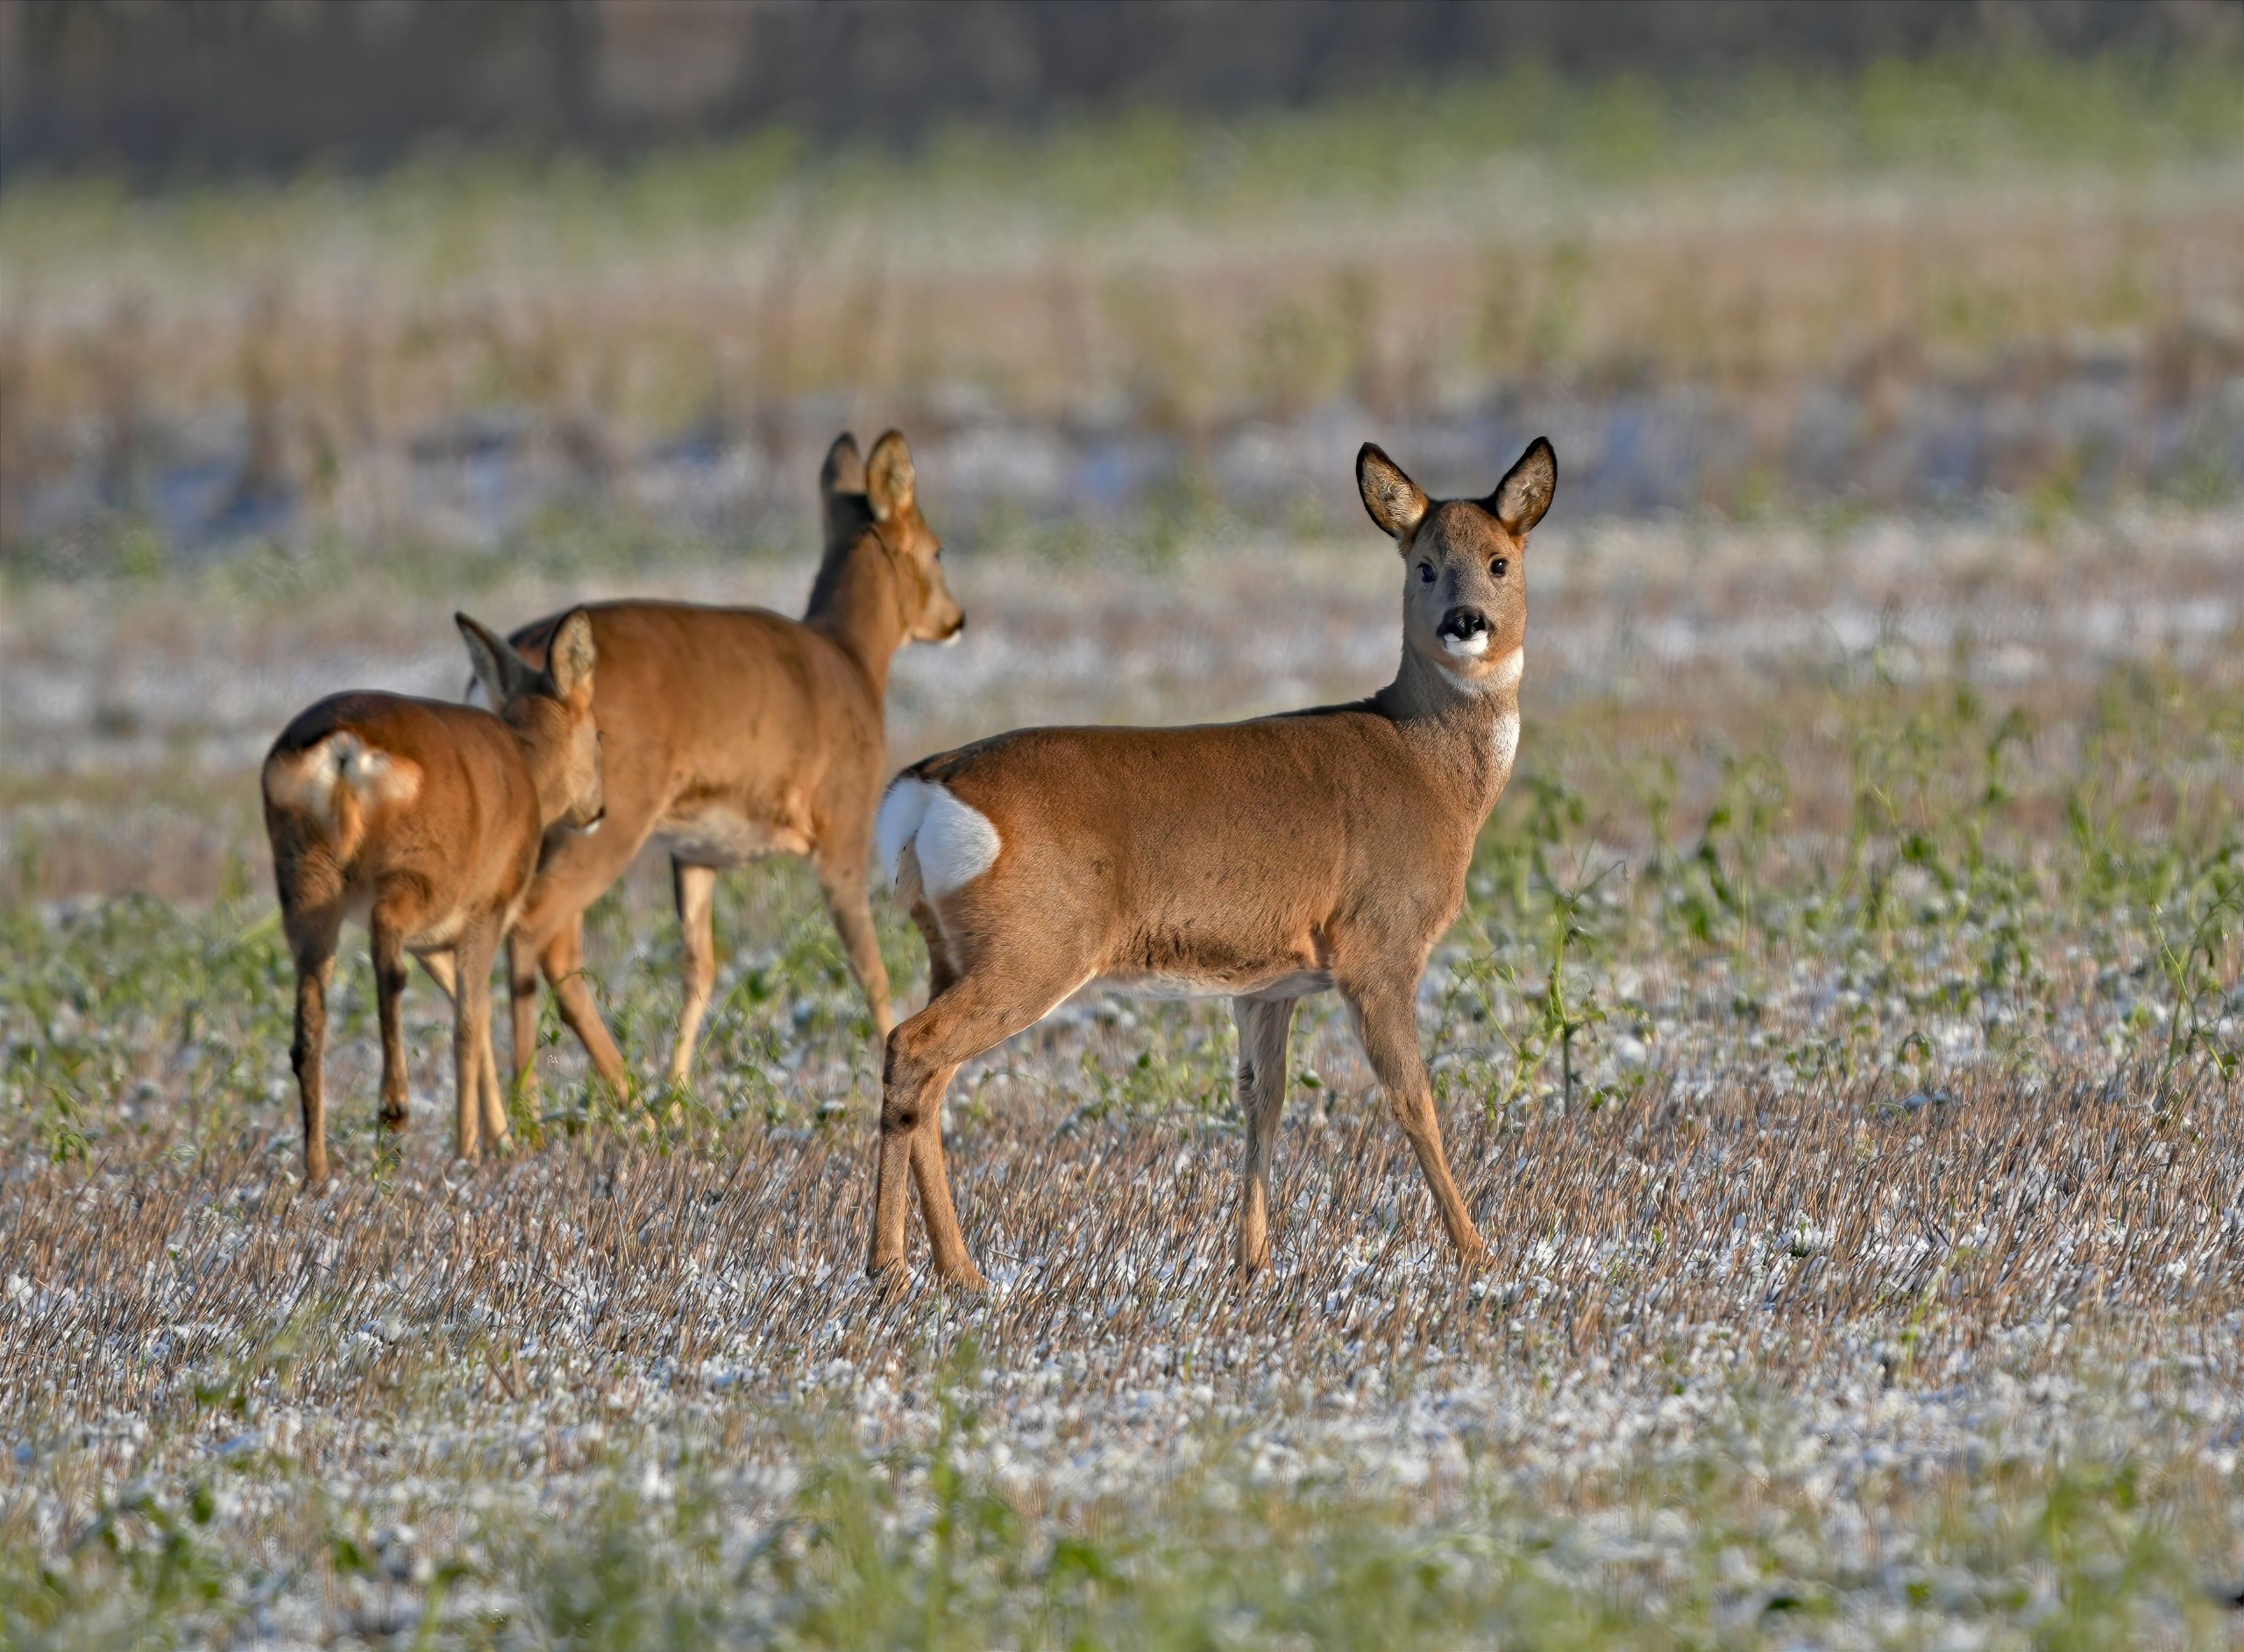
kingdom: Animalia
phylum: Chordata
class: Mammalia
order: Artiodactyla
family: Cervidae
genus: Capreolus
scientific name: Capreolus capreolus
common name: Rådyr
